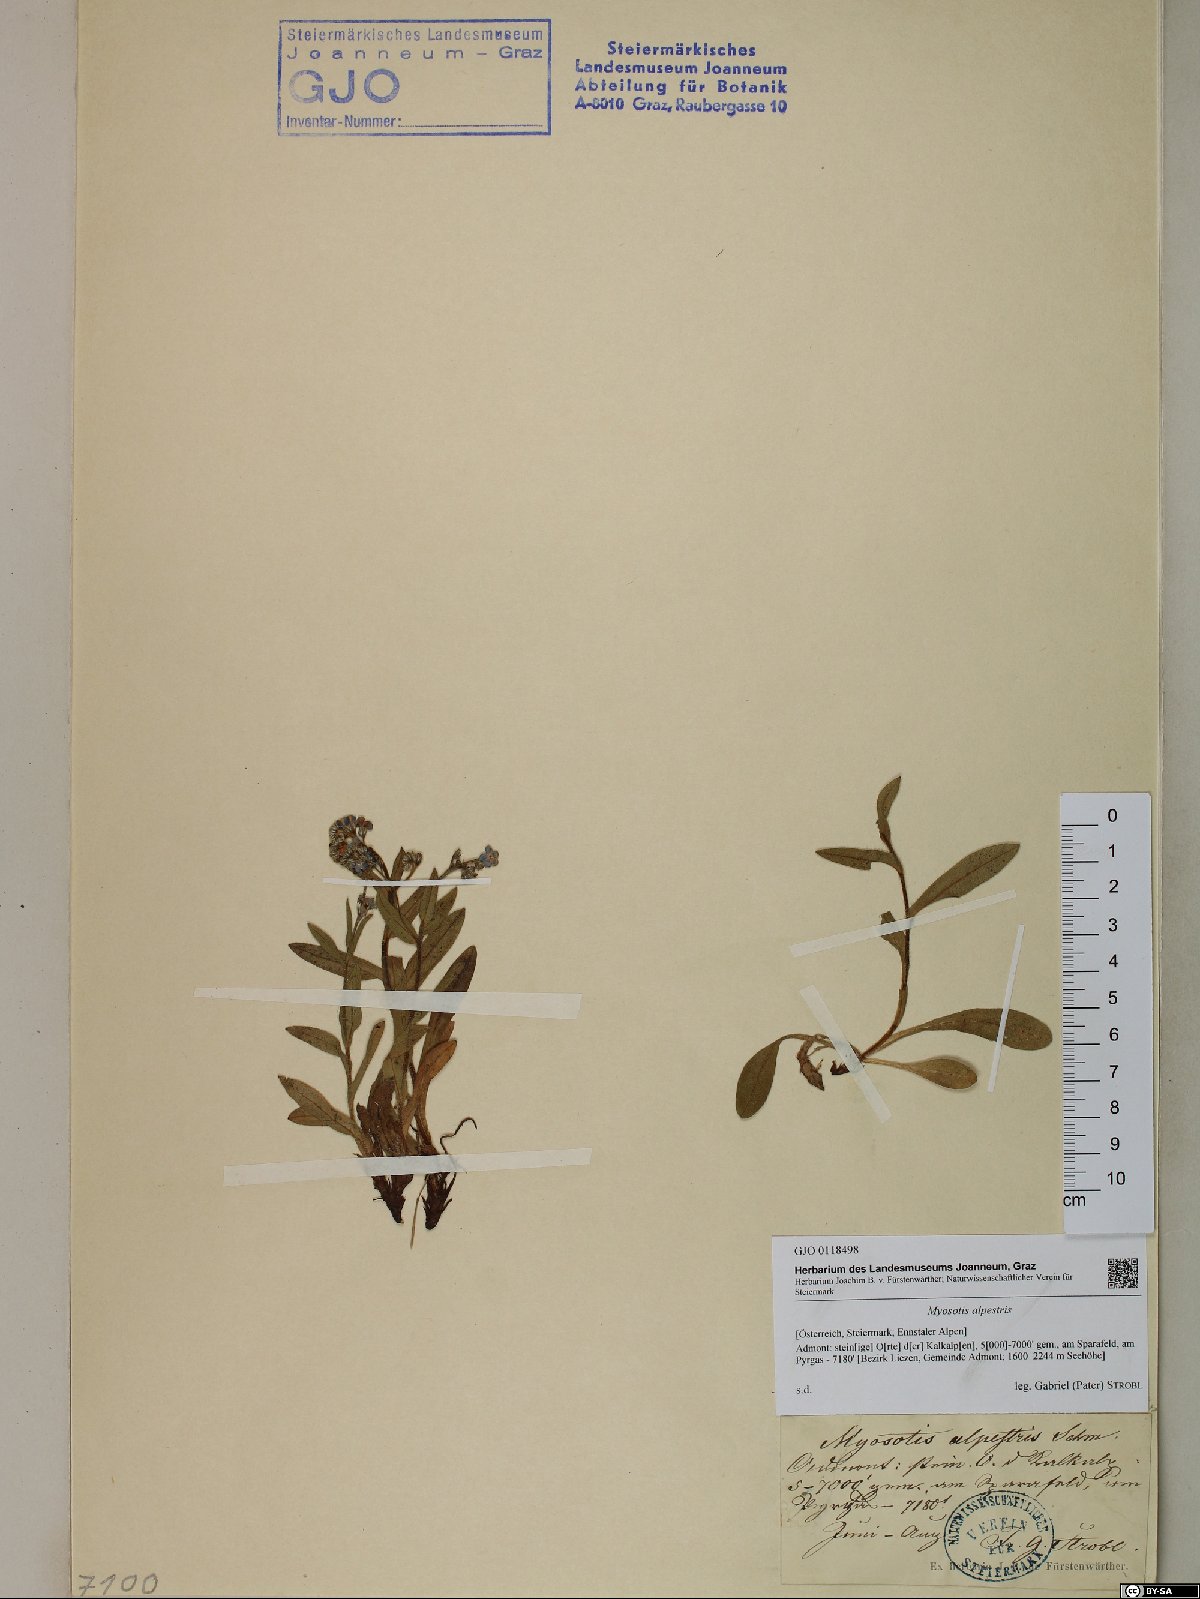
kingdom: Plantae
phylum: Tracheophyta
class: Magnoliopsida
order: Boraginales
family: Boraginaceae
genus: Myosotis
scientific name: Myosotis alpestris
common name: Alpine forget-me-not
